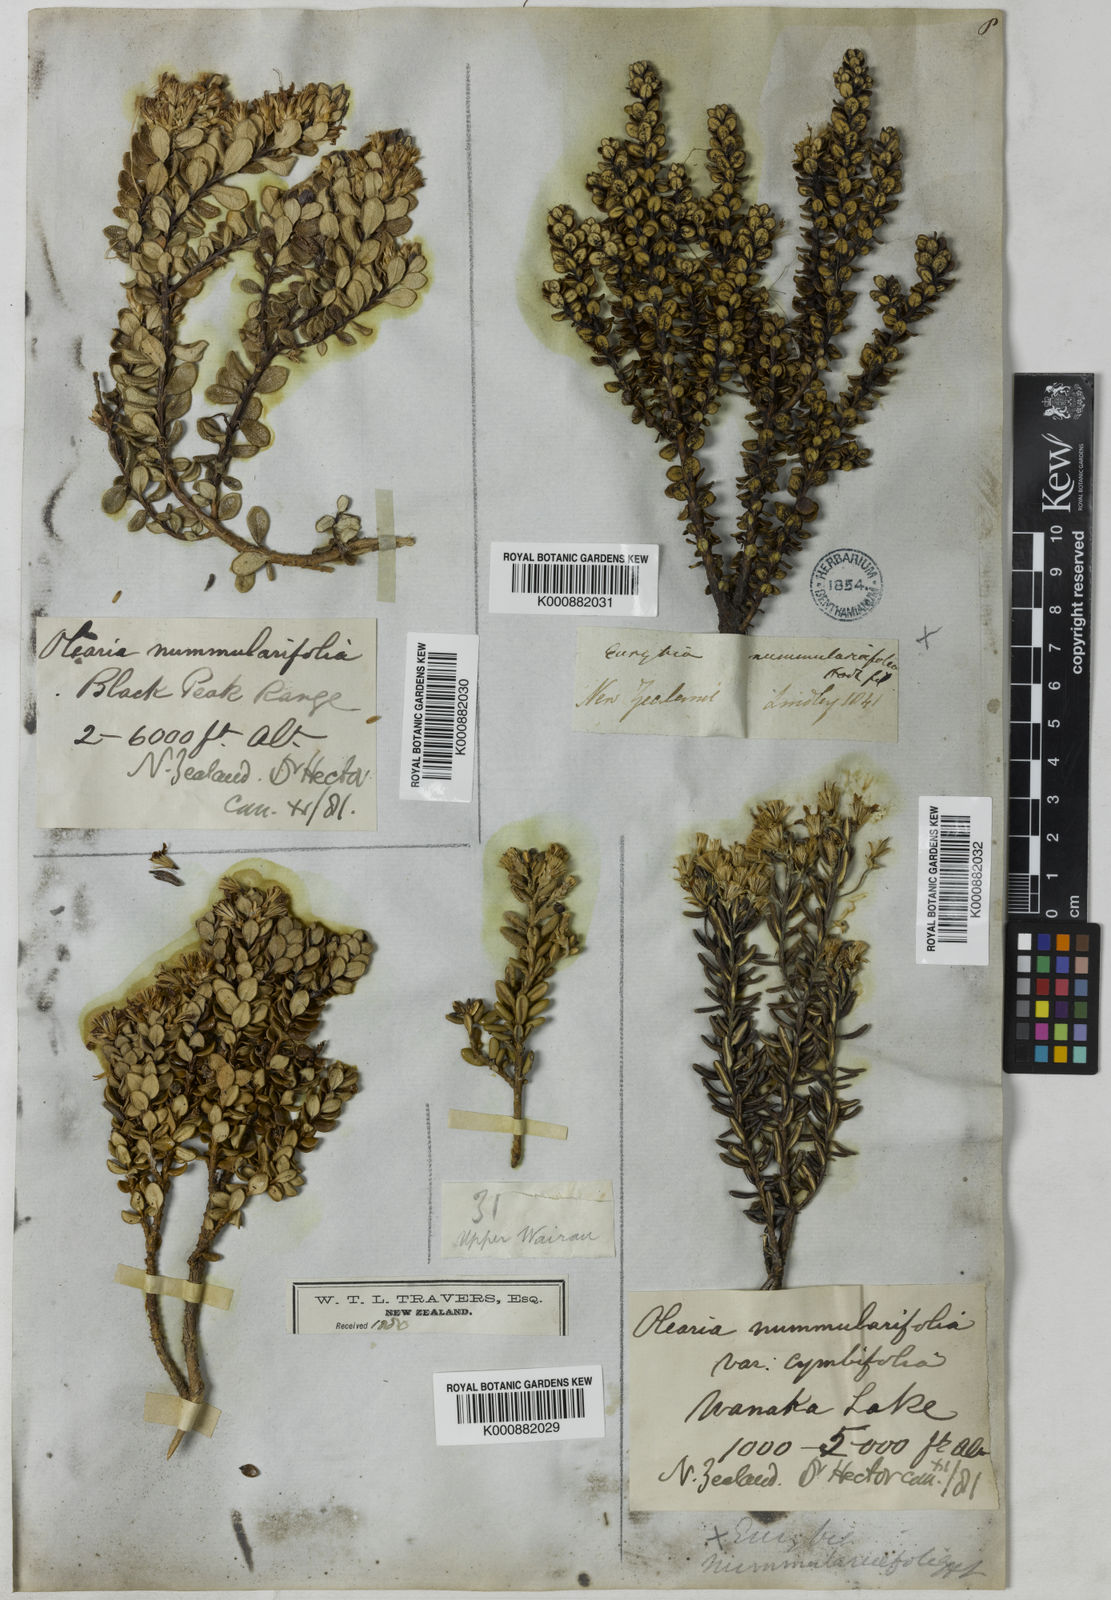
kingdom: Plantae
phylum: Tracheophyta
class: Magnoliopsida
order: Asterales
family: Asteraceae
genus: Olearia
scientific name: Olearia
